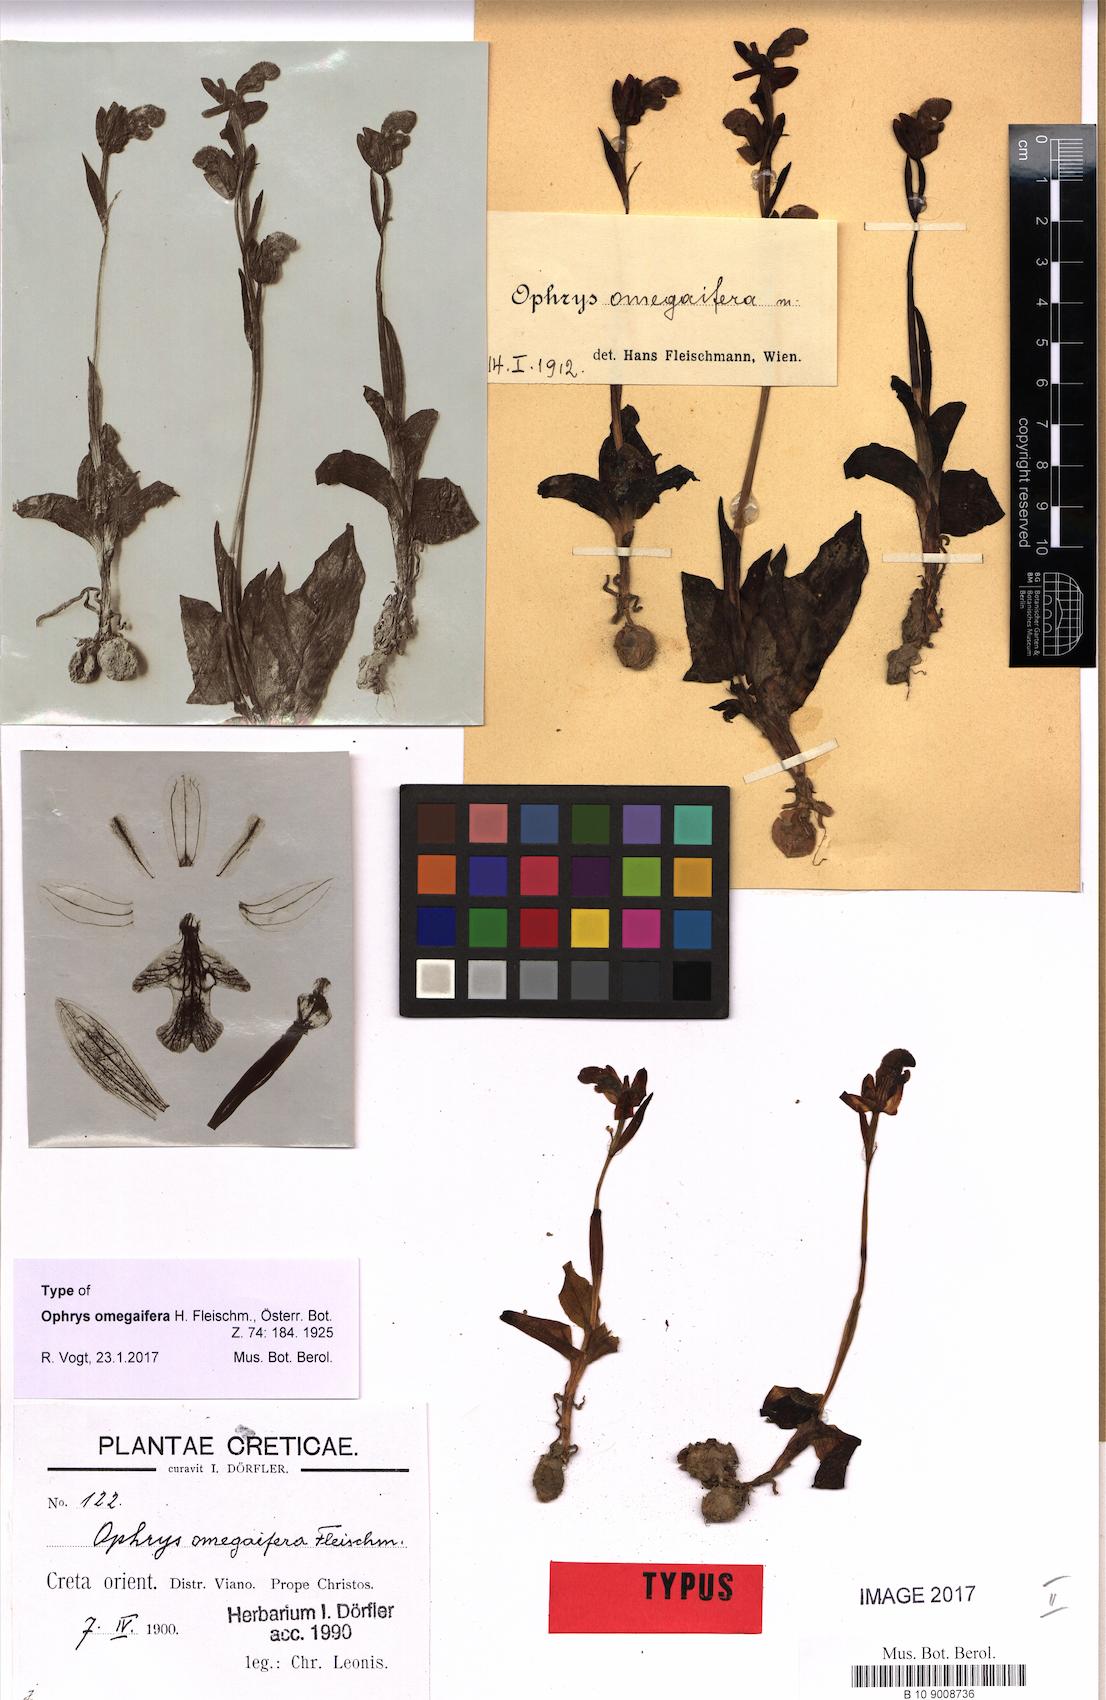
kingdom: Plantae
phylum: Tracheophyta
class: Liliopsida
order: Asparagales
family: Orchidaceae
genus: Ophrys
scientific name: Ophrys omegaifera
